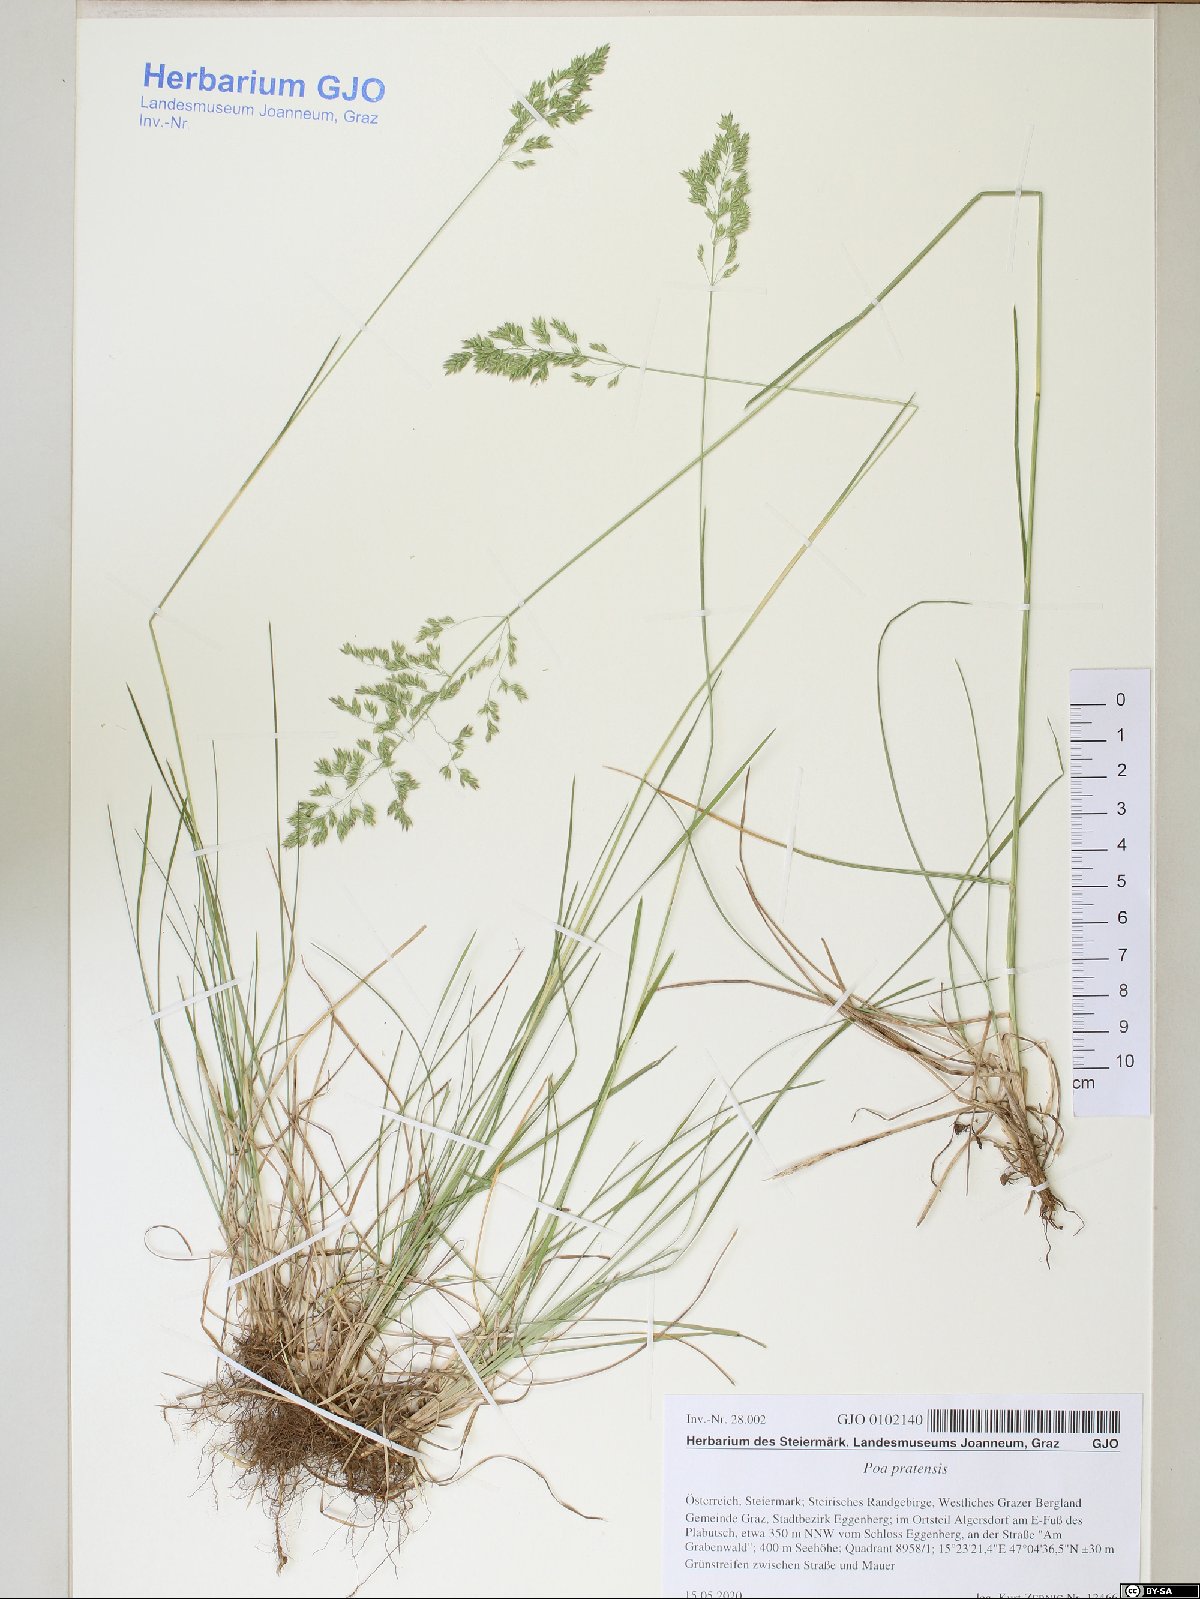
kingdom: Plantae
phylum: Tracheophyta
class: Liliopsida
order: Poales
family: Poaceae
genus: Poa
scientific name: Poa pratensis
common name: Kentucky bluegrass
